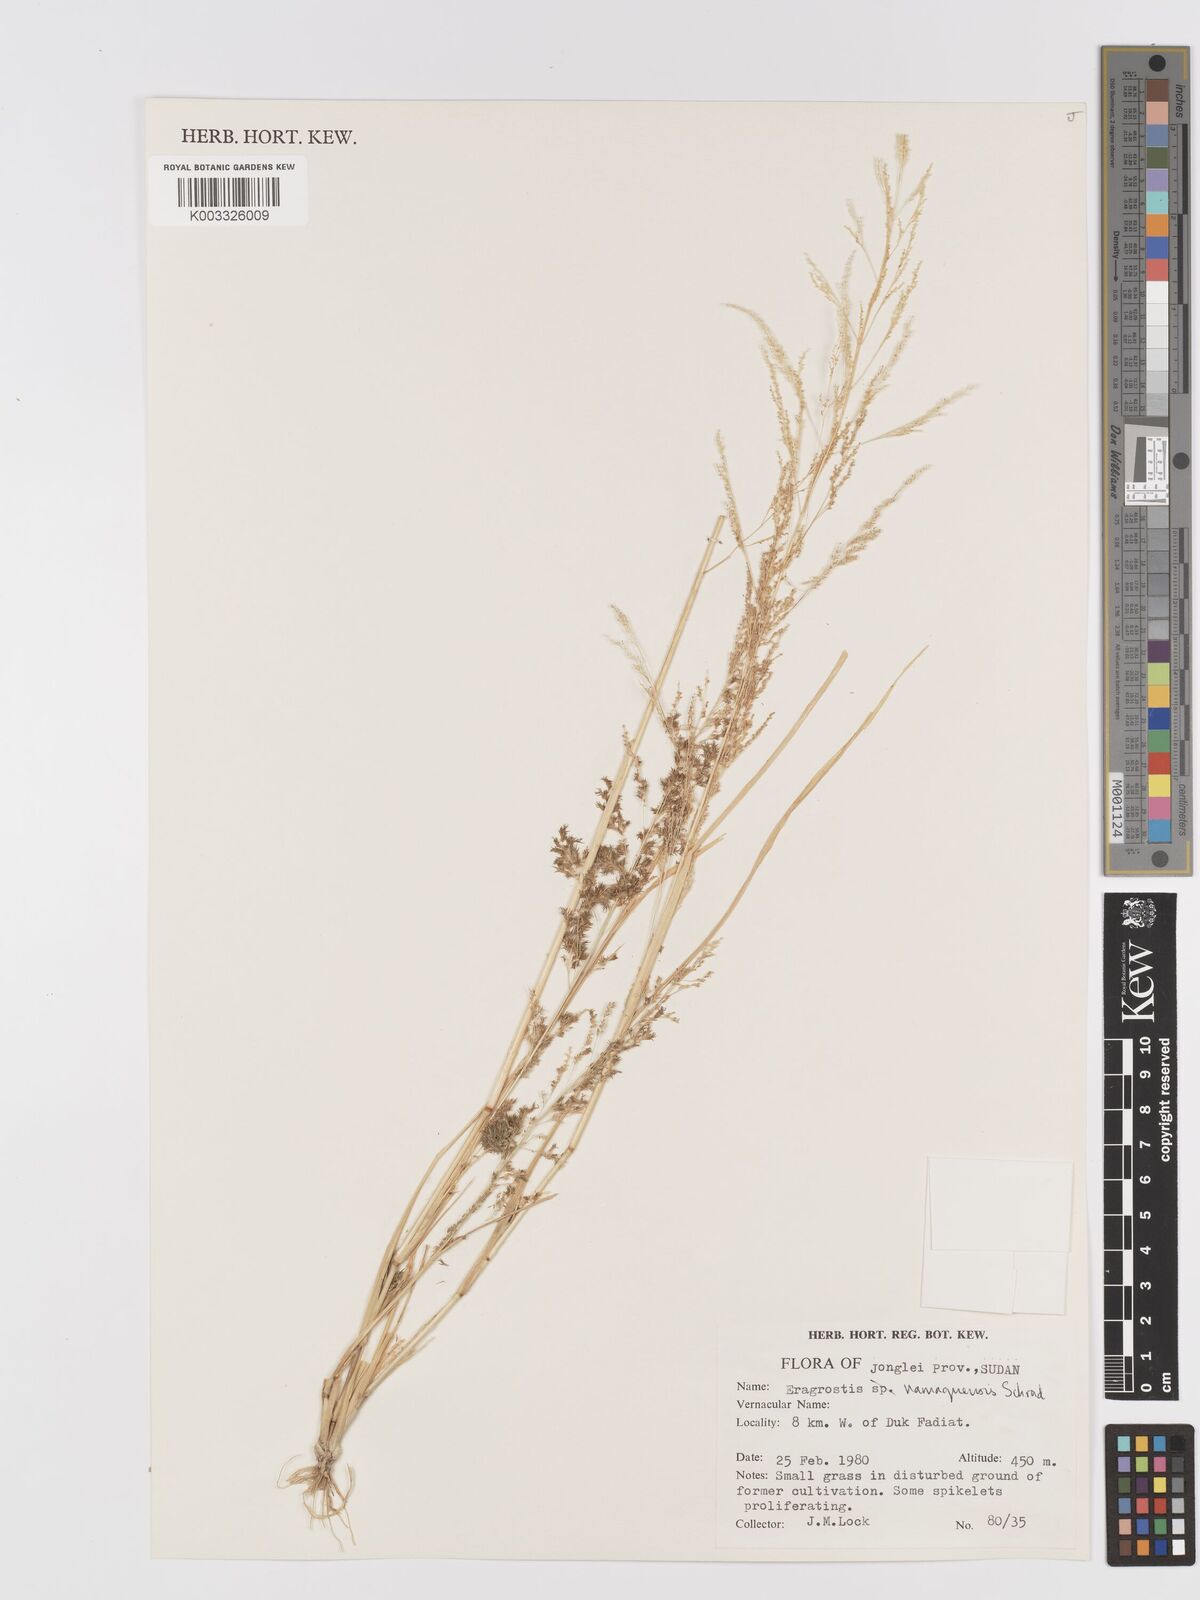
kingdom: Plantae
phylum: Tracheophyta
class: Liliopsida
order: Poales
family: Poaceae
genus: Eragrostis
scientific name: Eragrostis japonica
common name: Pond lovegrass
